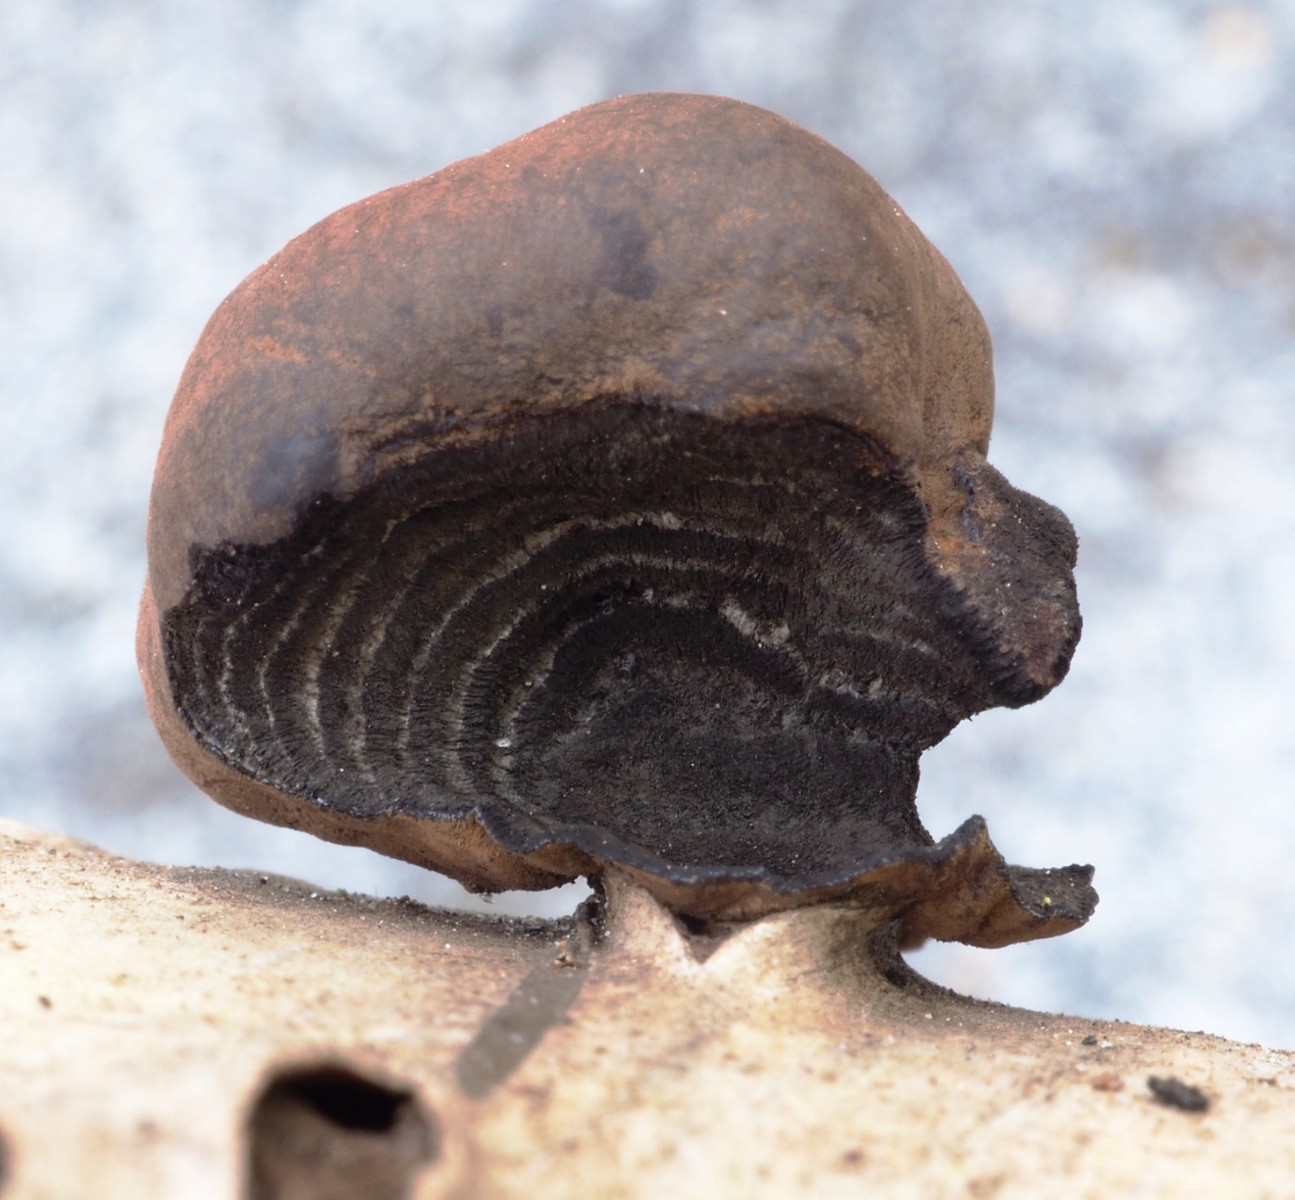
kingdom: Fungi
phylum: Ascomycota
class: Sordariomycetes
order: Xylariales
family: Hypoxylaceae
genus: Daldinia
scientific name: Daldinia decipiens
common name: stilket bæltekugle
